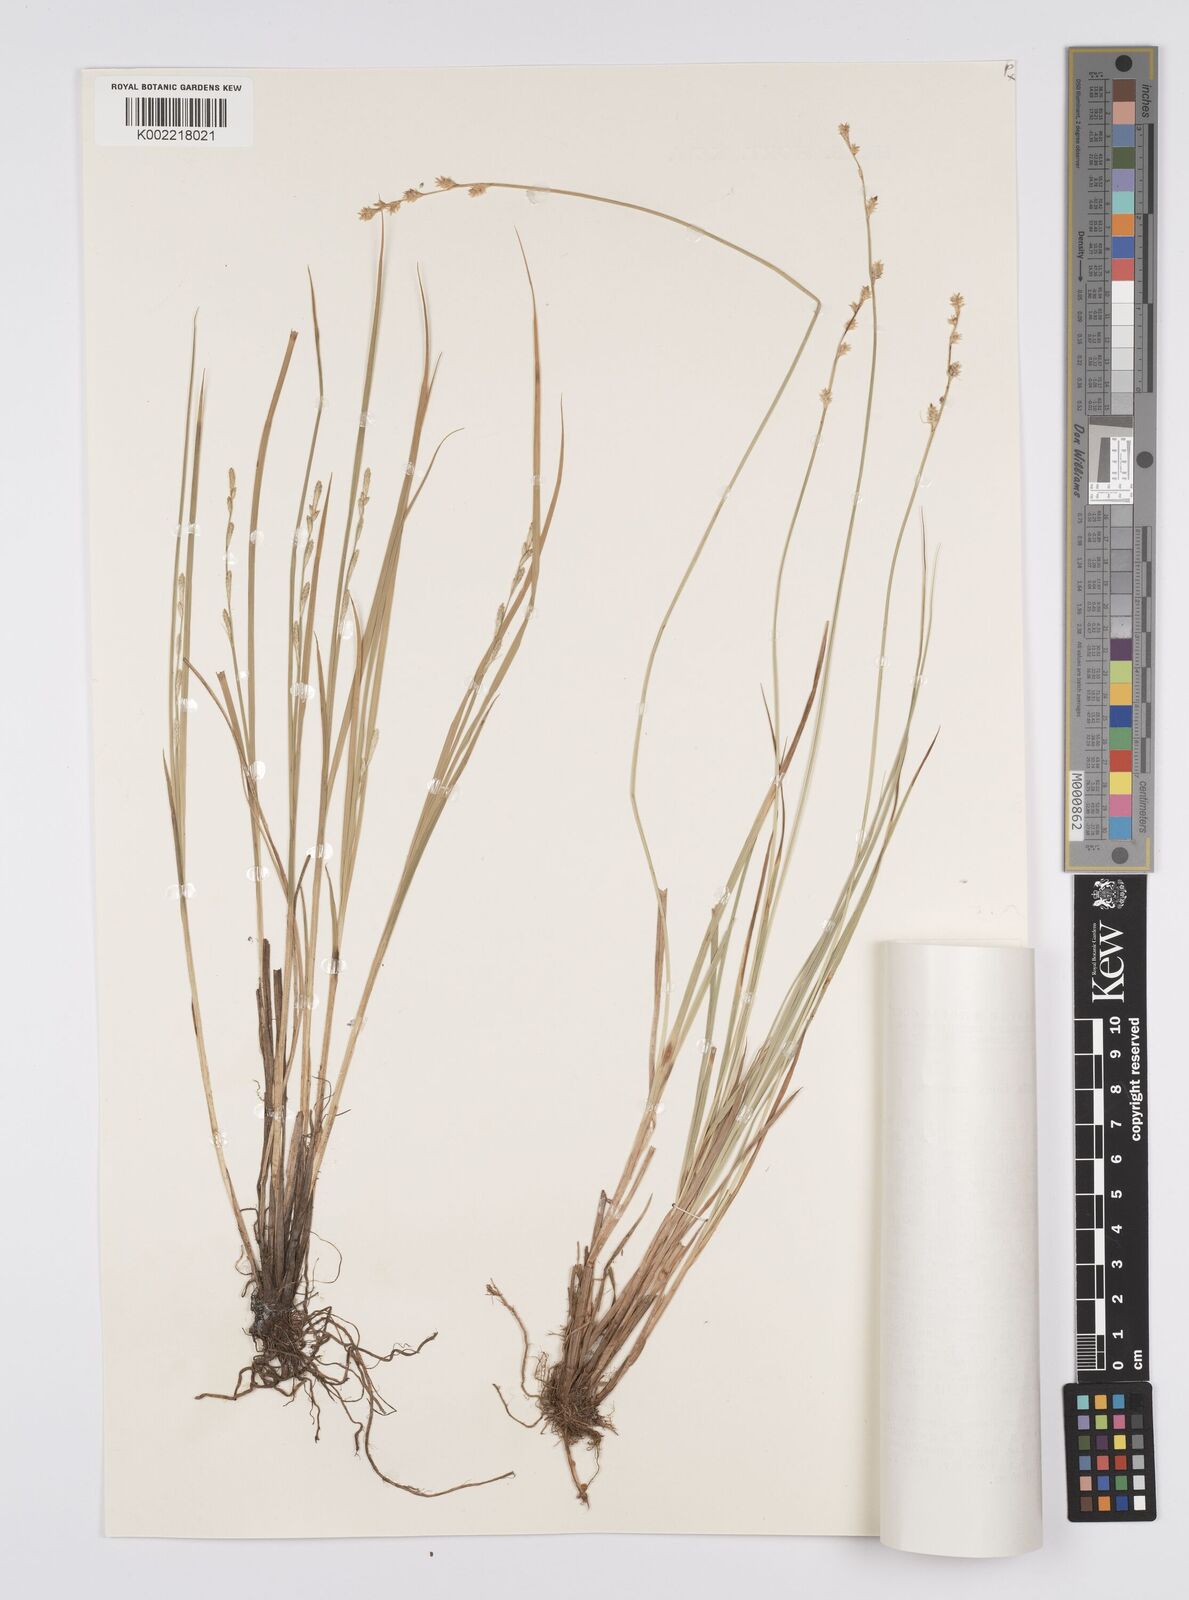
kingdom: Plantae
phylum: Tracheophyta
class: Liliopsida
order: Poales
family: Cyperaceae
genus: Carex
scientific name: Carex canescens
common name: White sedge
